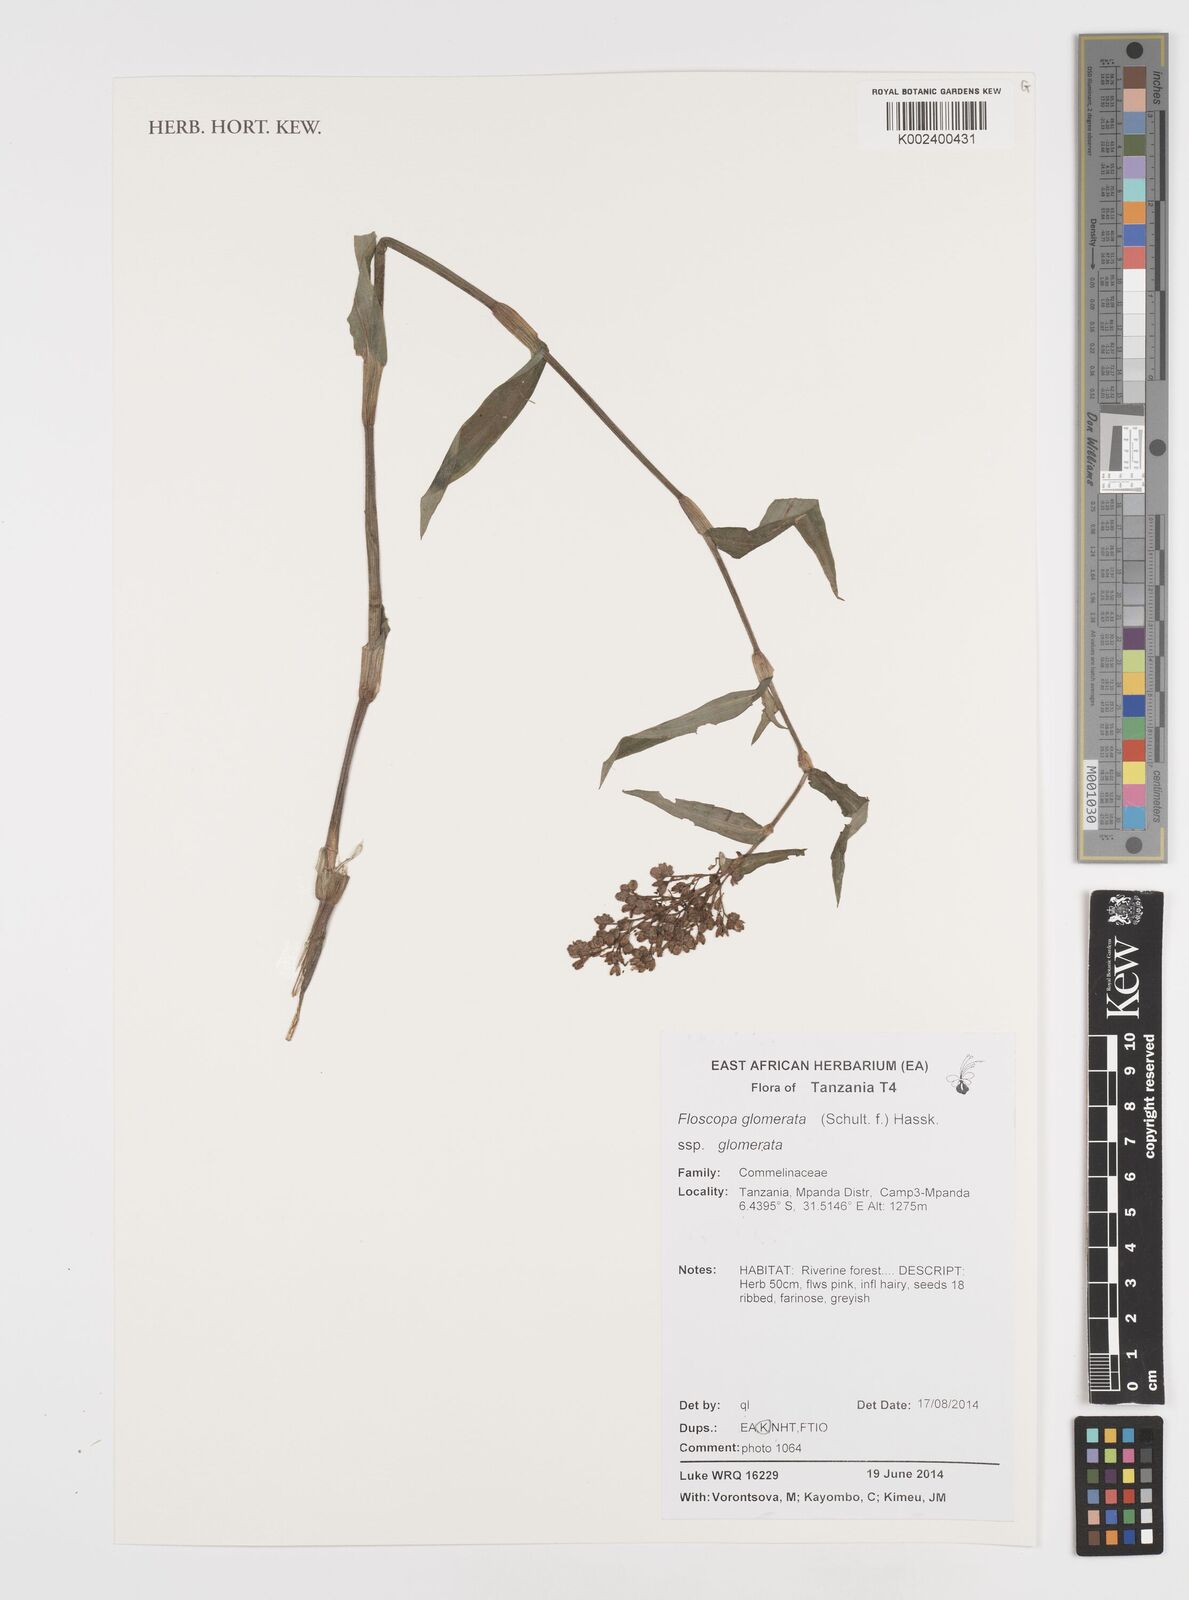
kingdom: Plantae
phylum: Tracheophyta
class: Liliopsida
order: Commelinales
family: Commelinaceae
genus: Floscopa
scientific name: Floscopa glomerata
